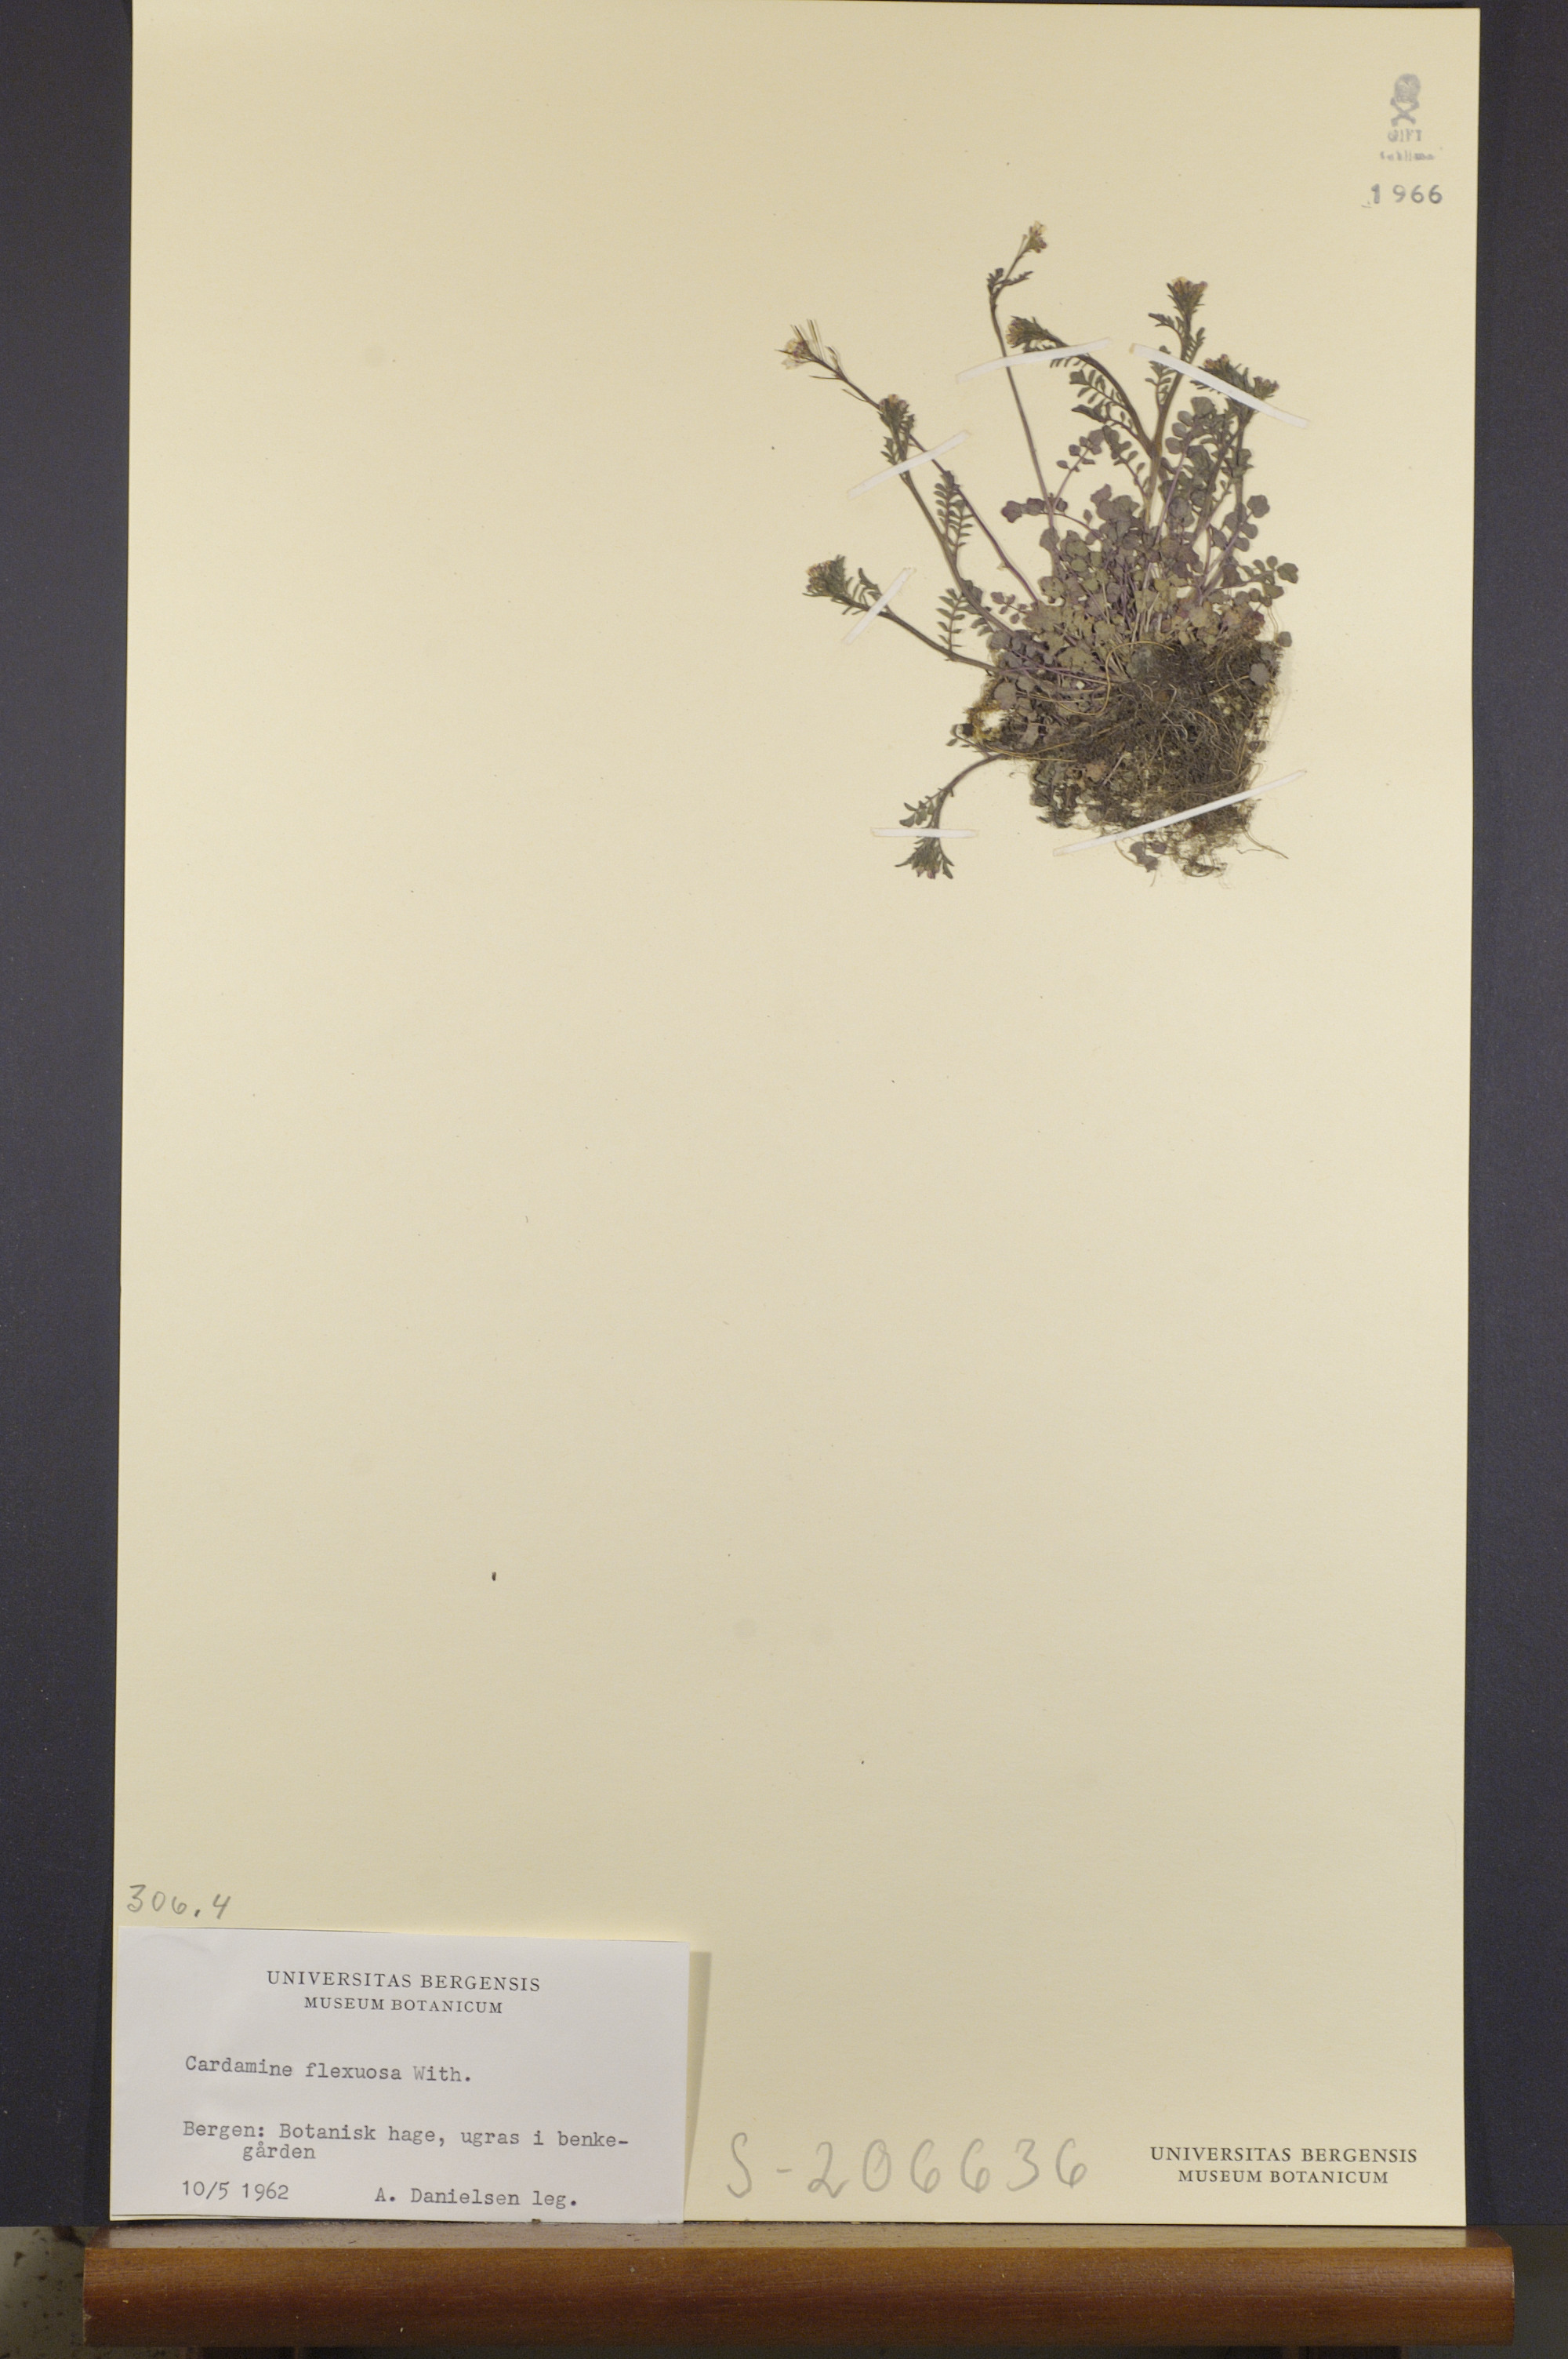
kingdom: Plantae
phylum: Tracheophyta
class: Magnoliopsida
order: Brassicales
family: Brassicaceae
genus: Cardamine
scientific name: Cardamine flexuosa
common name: Woodland bittercress
